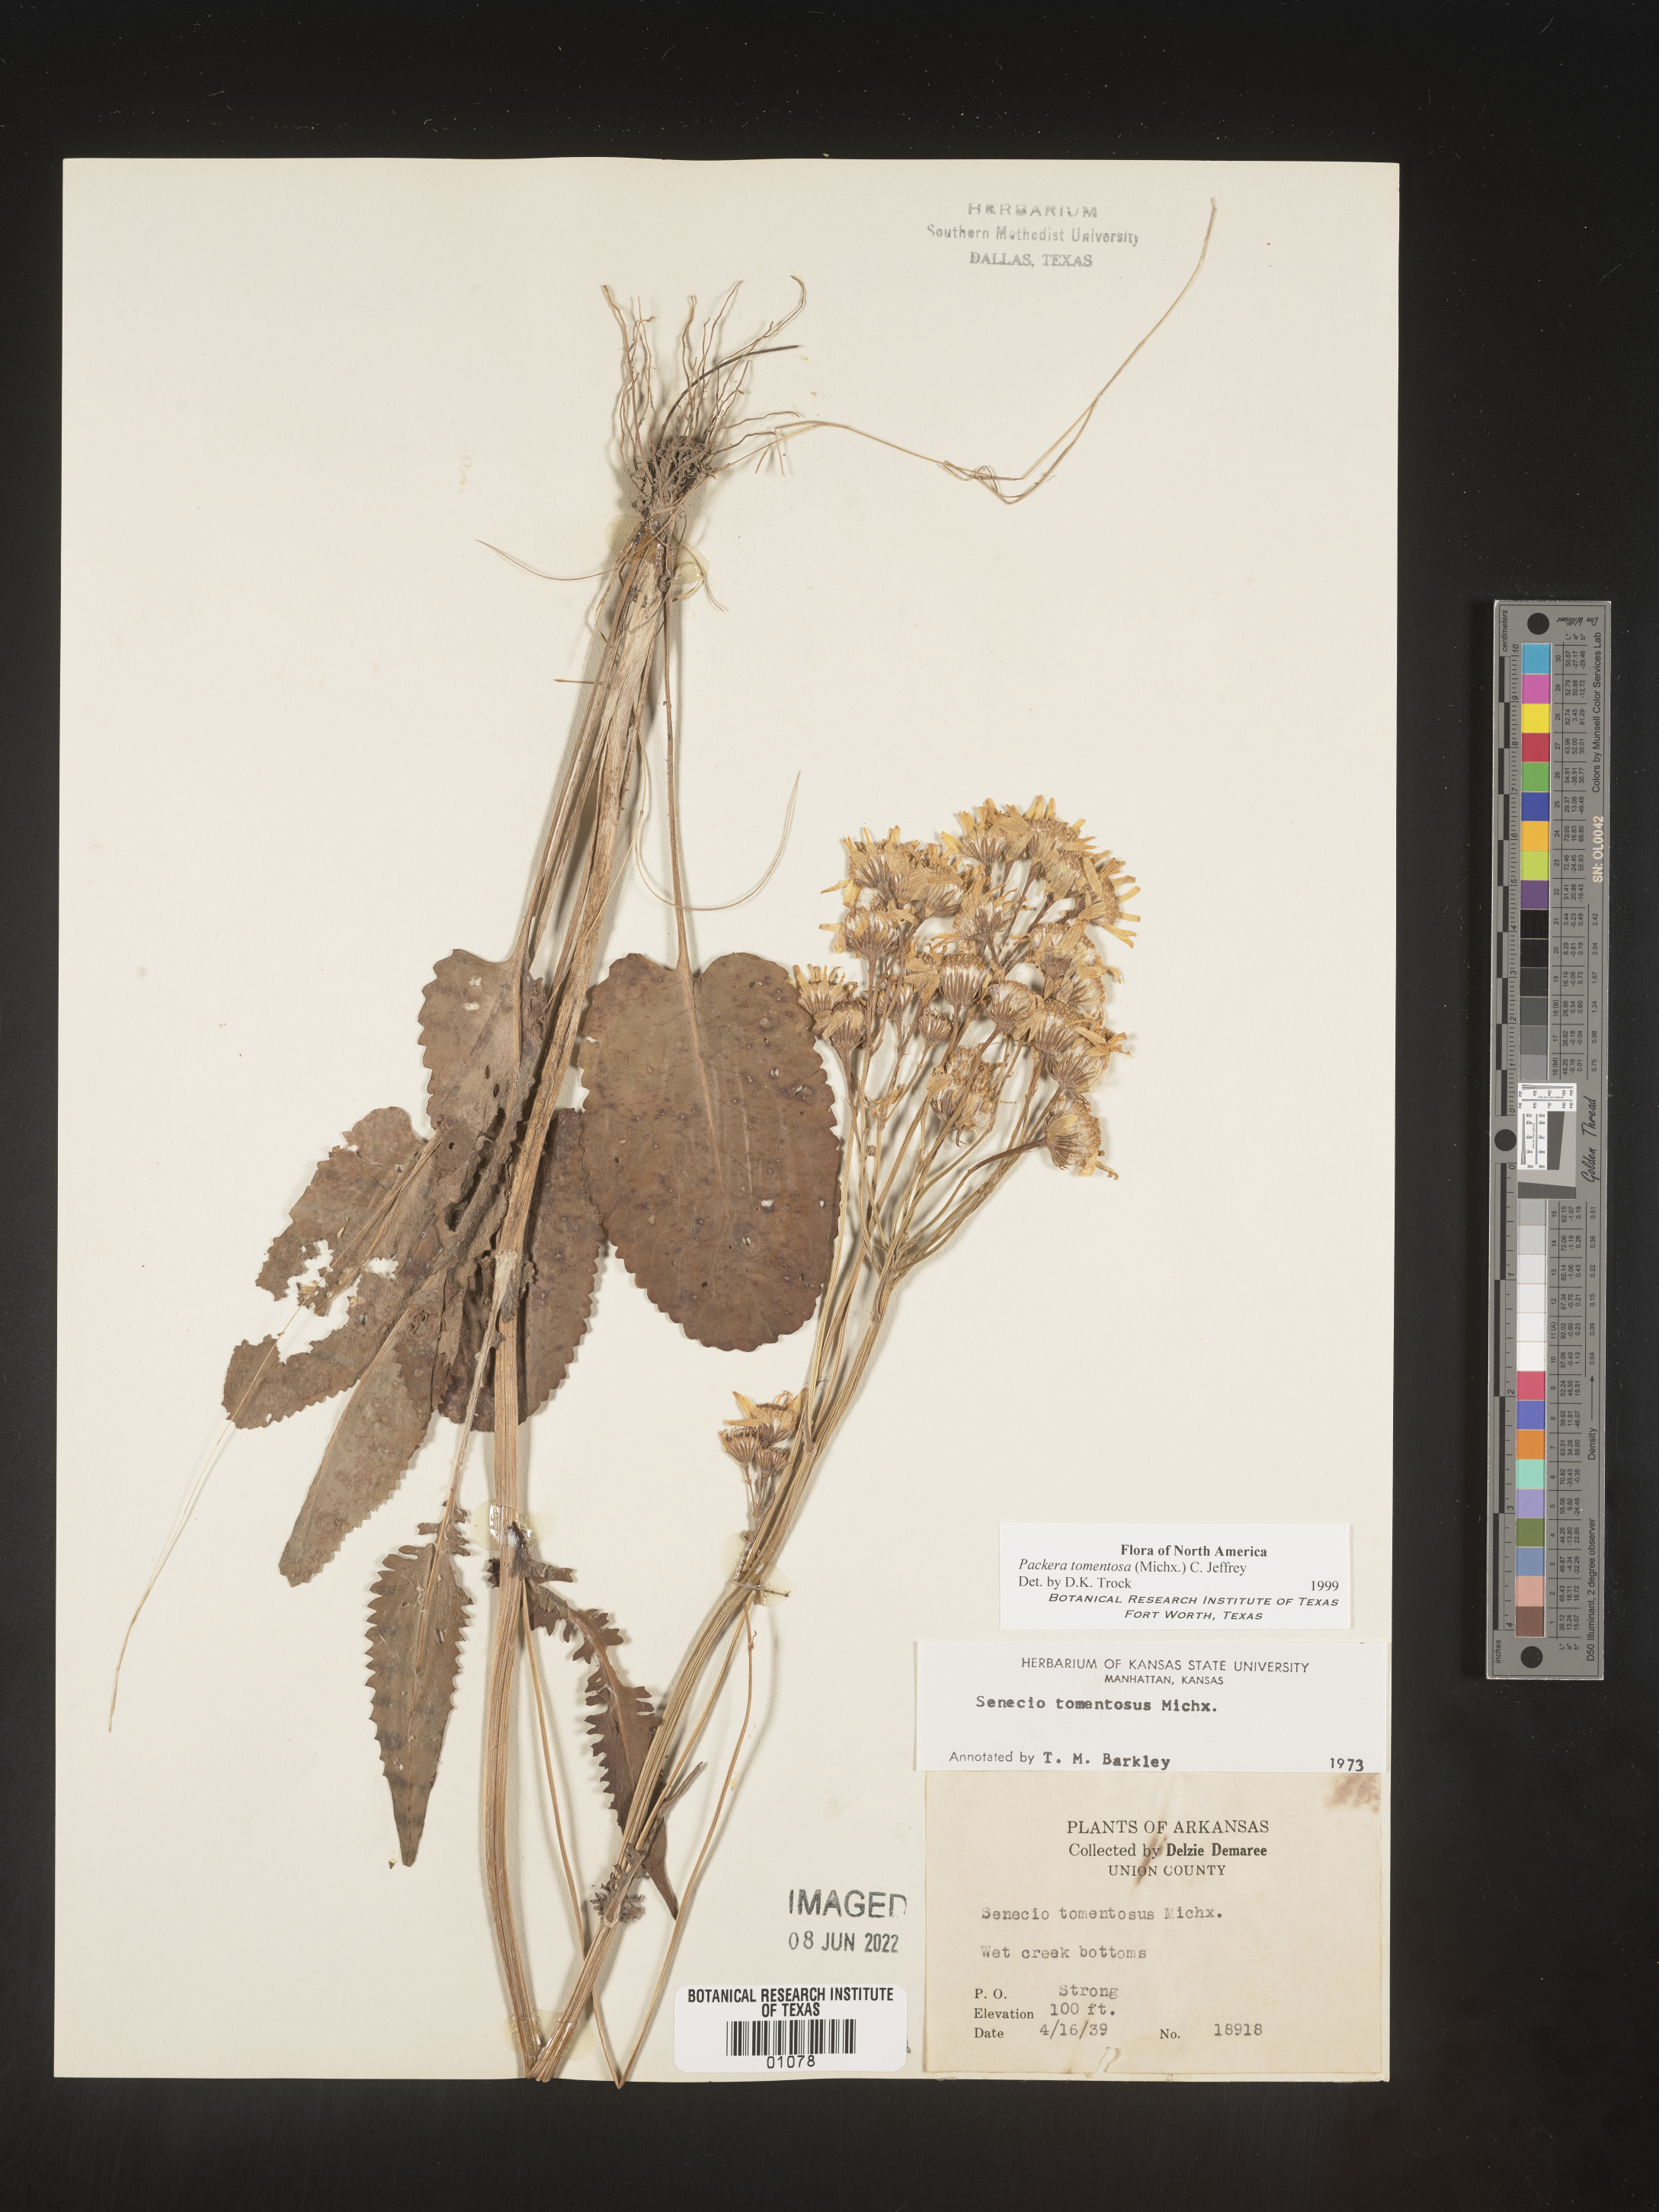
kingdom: Plantae
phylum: Tracheophyta
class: Magnoliopsida
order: Asterales
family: Asteraceae
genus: Packera
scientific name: Packera dubia
